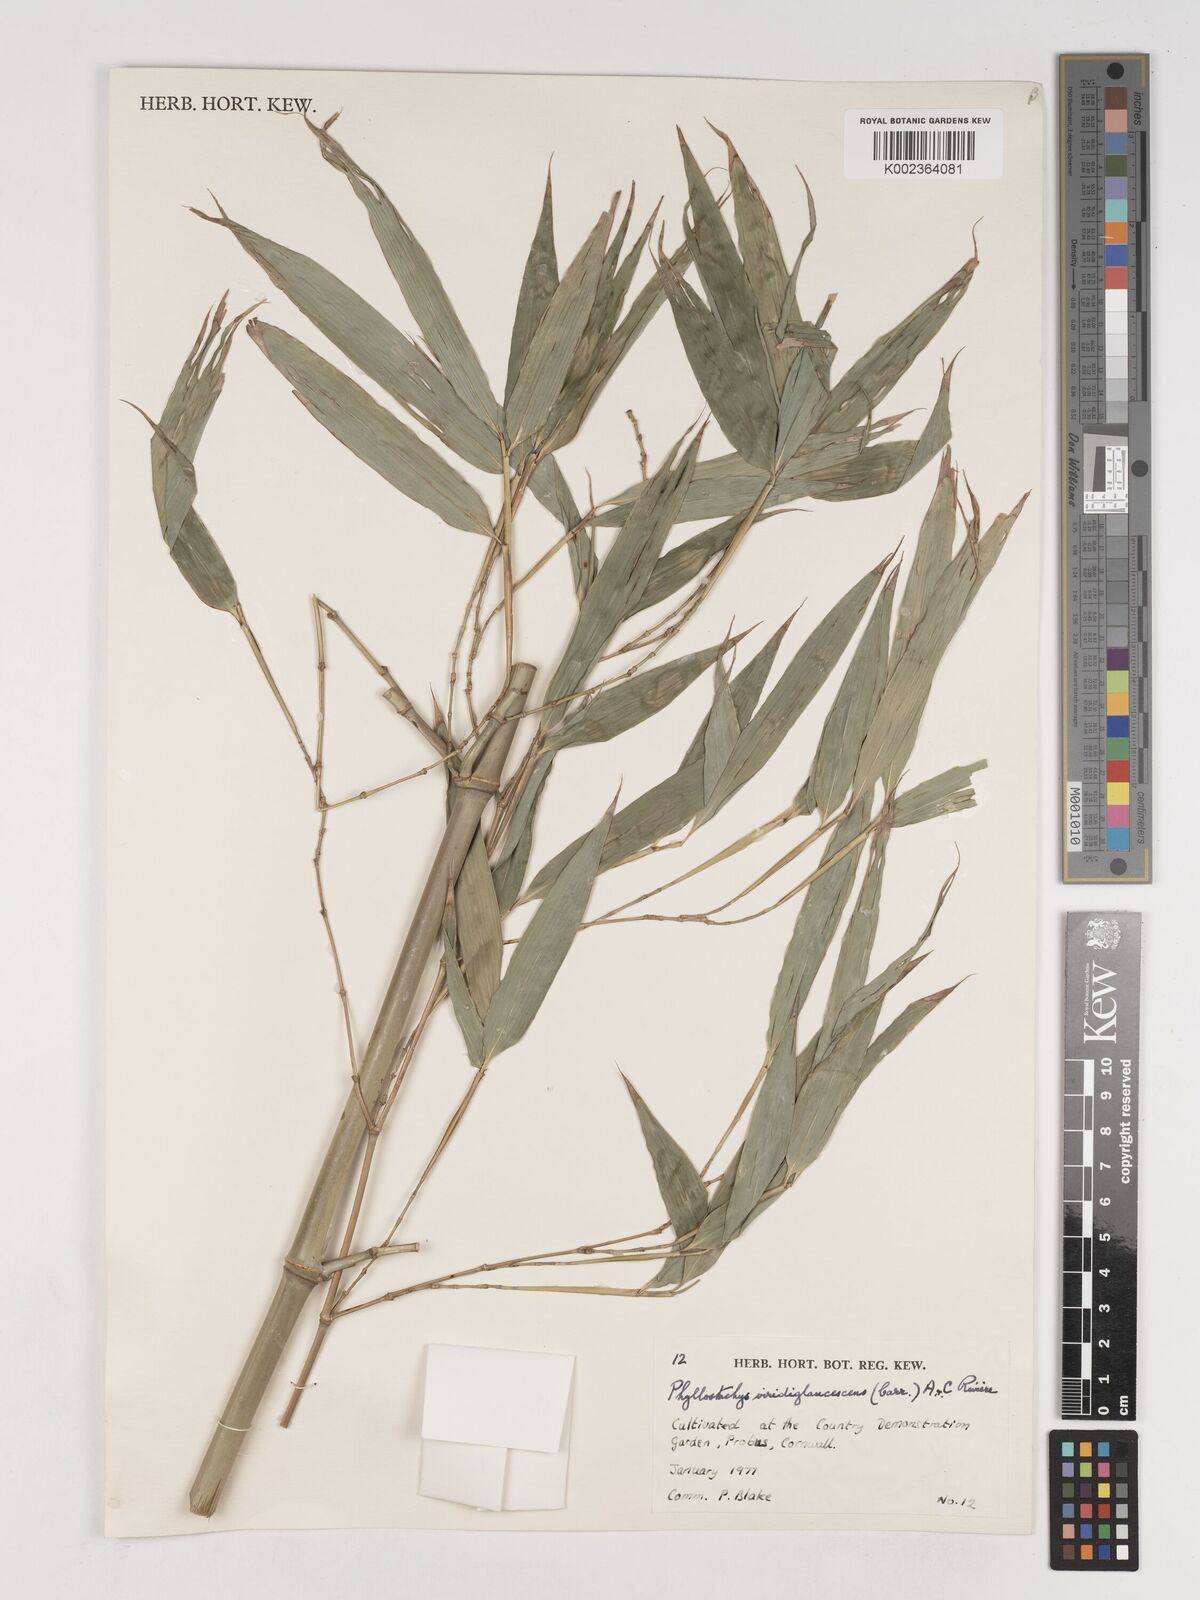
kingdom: Plantae
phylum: Tracheophyta
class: Liliopsida
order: Poales
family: Poaceae
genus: Phyllostachys
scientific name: Phyllostachys viridiglaucescens
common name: Greenwax golden bamboo
